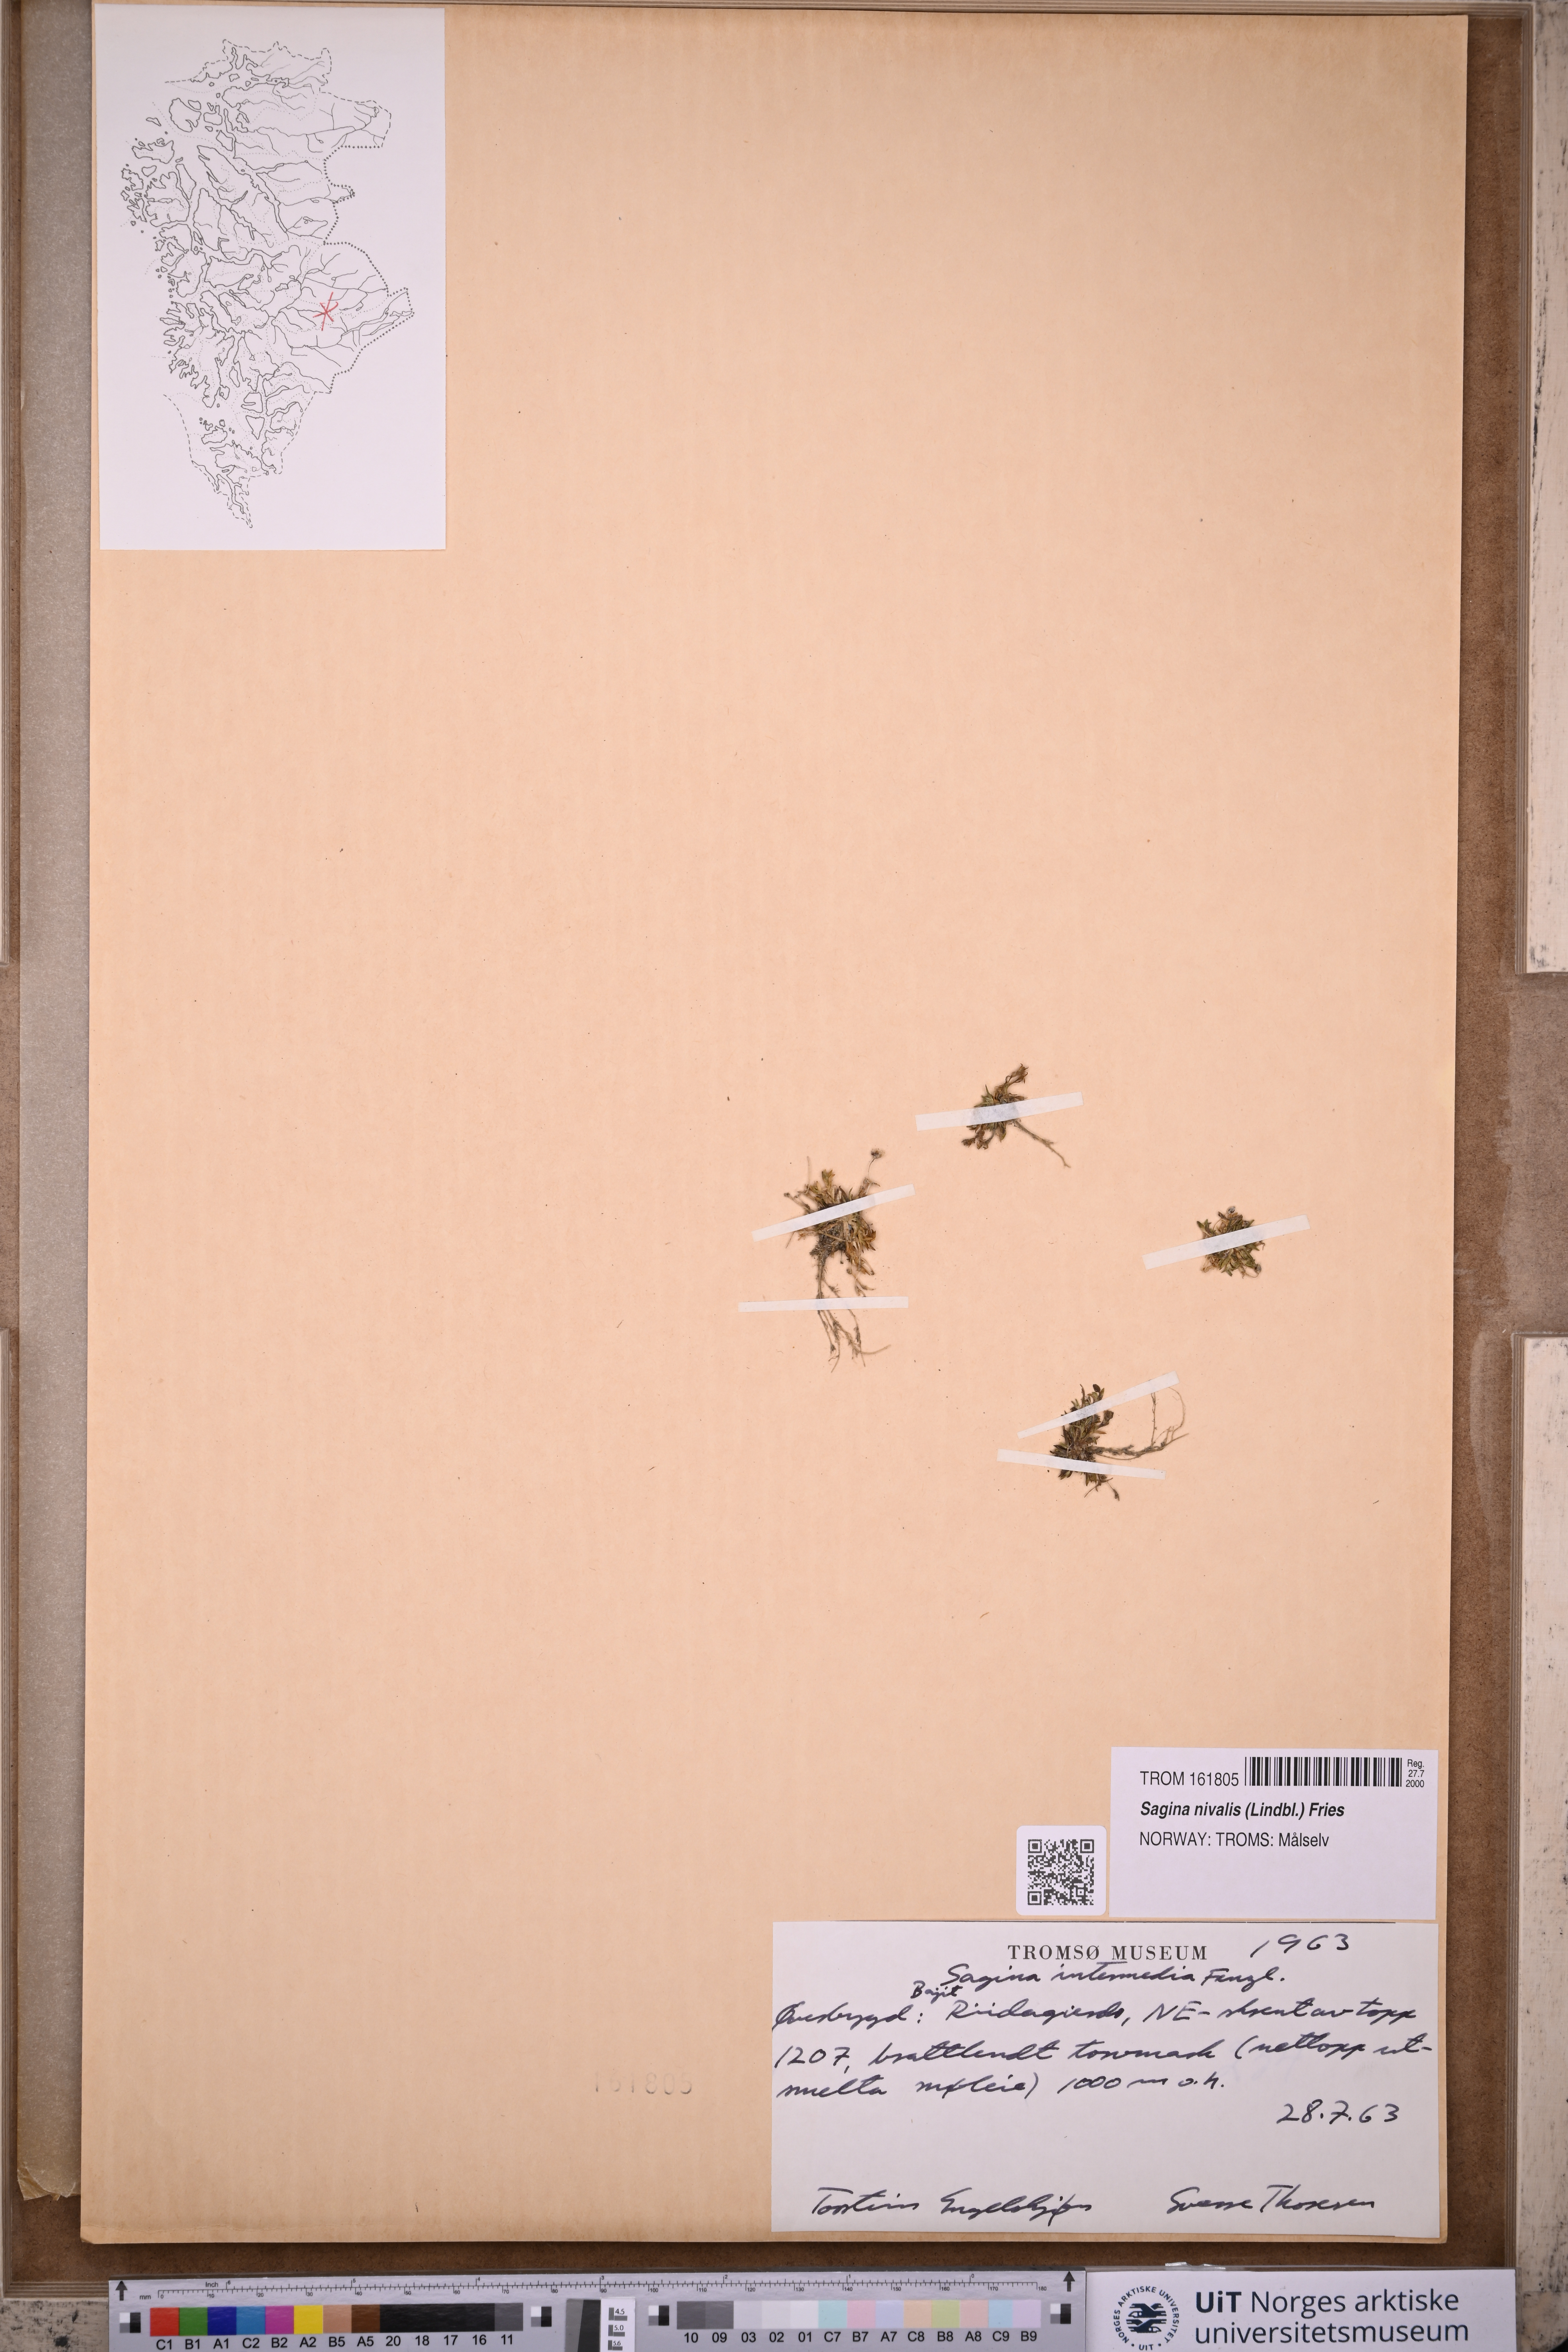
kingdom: Plantae
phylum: Tracheophyta
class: Magnoliopsida
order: Caryophyllales
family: Caryophyllaceae
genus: Sagina
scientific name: Sagina nivalis
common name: Snow pearlwort
